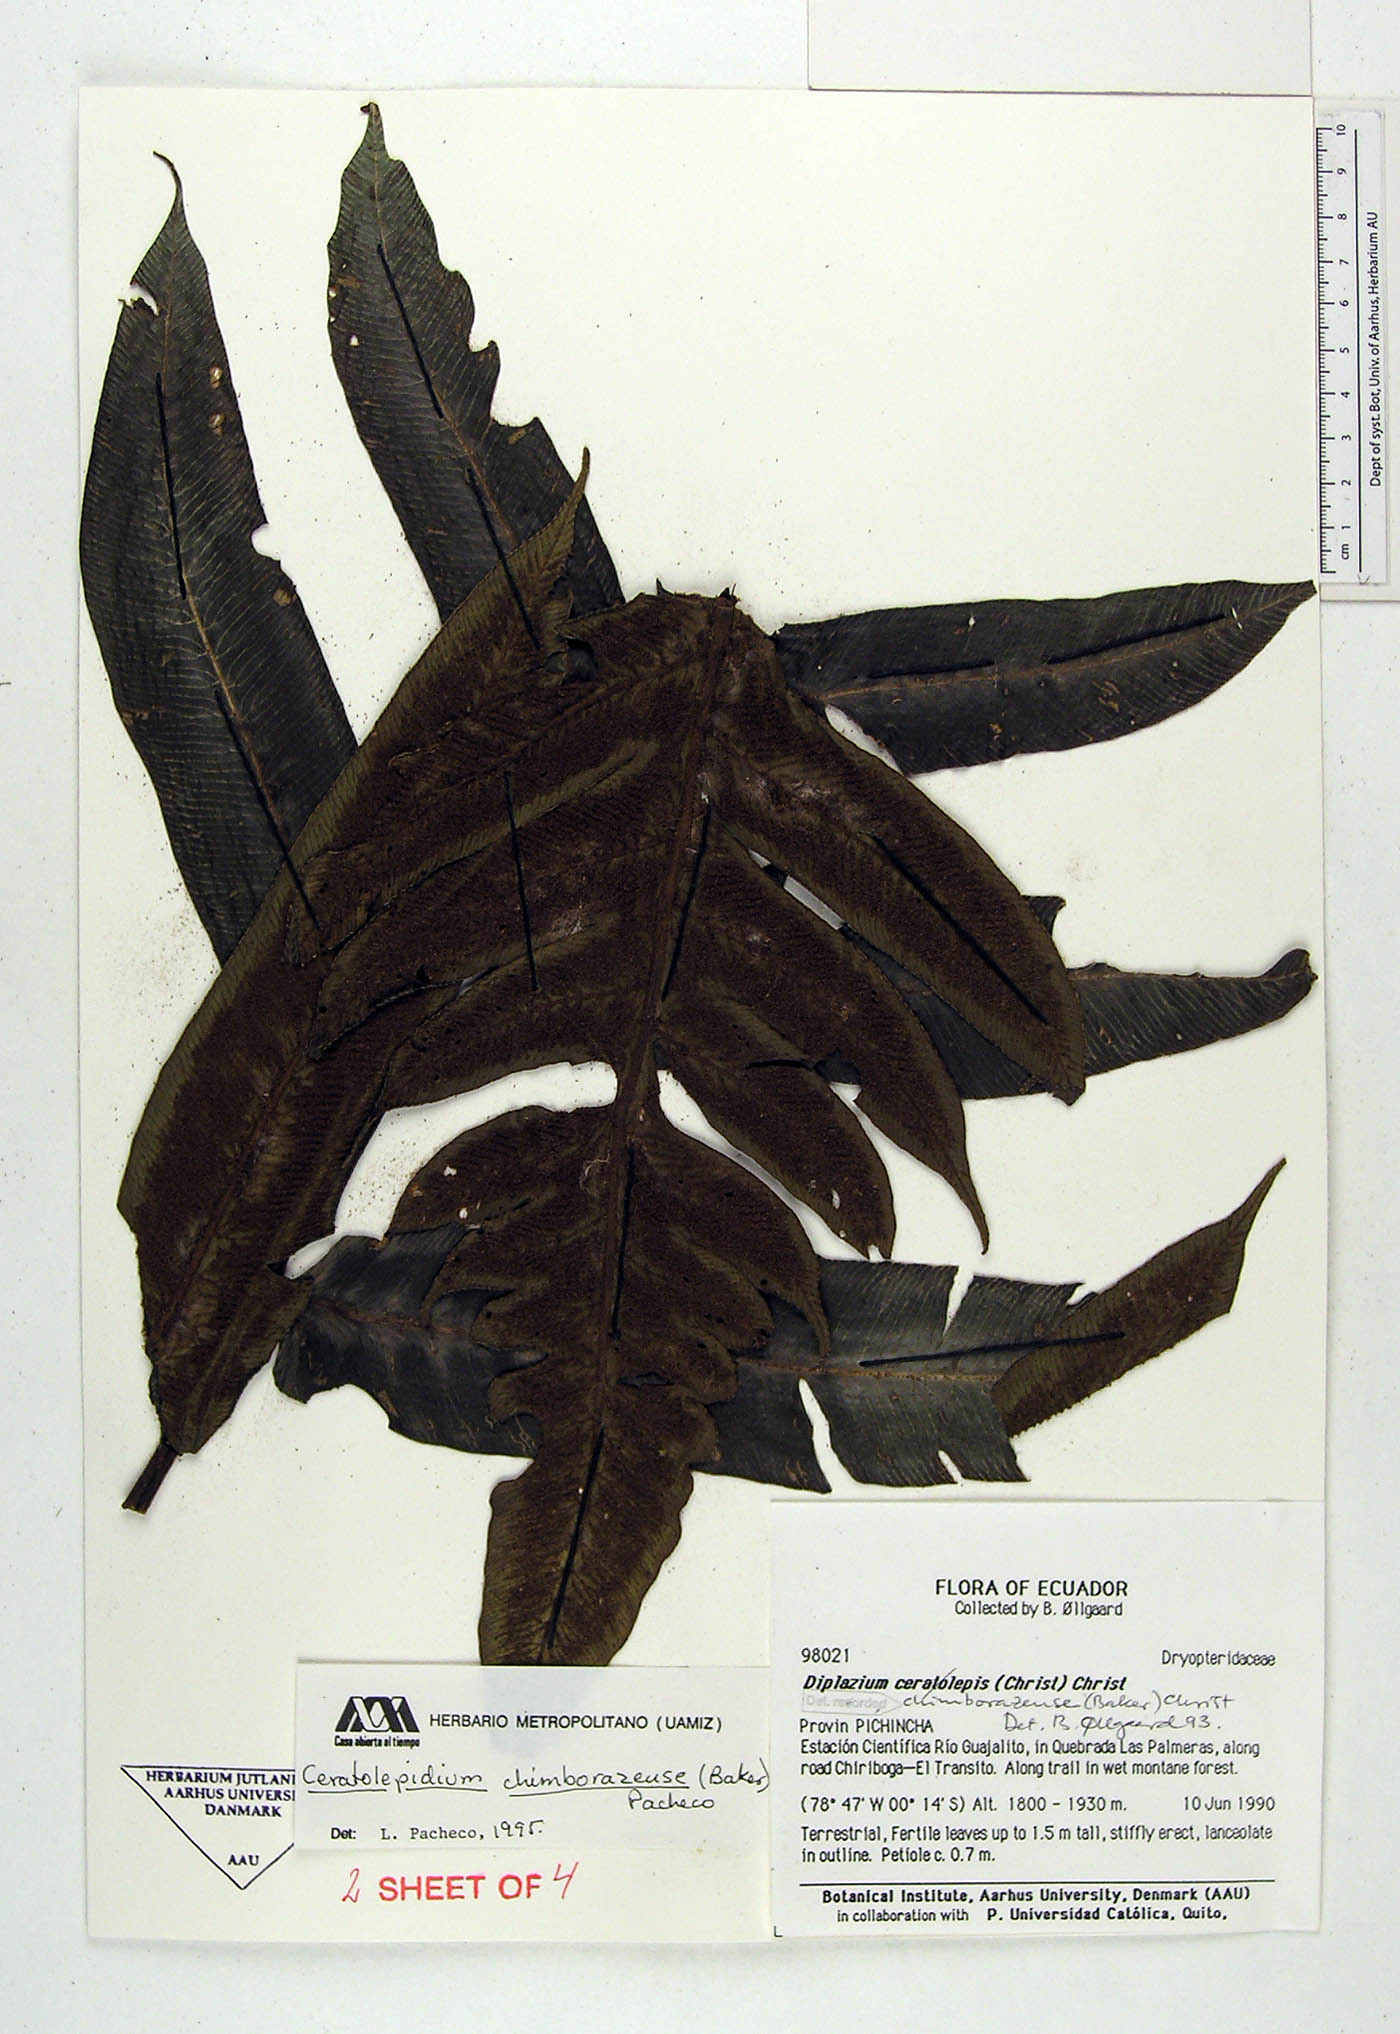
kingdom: Plantae
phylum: Tracheophyta
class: Polypodiopsida
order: Polypodiales
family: Athyriaceae
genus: Diplazium
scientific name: Diplazium chimborazense
